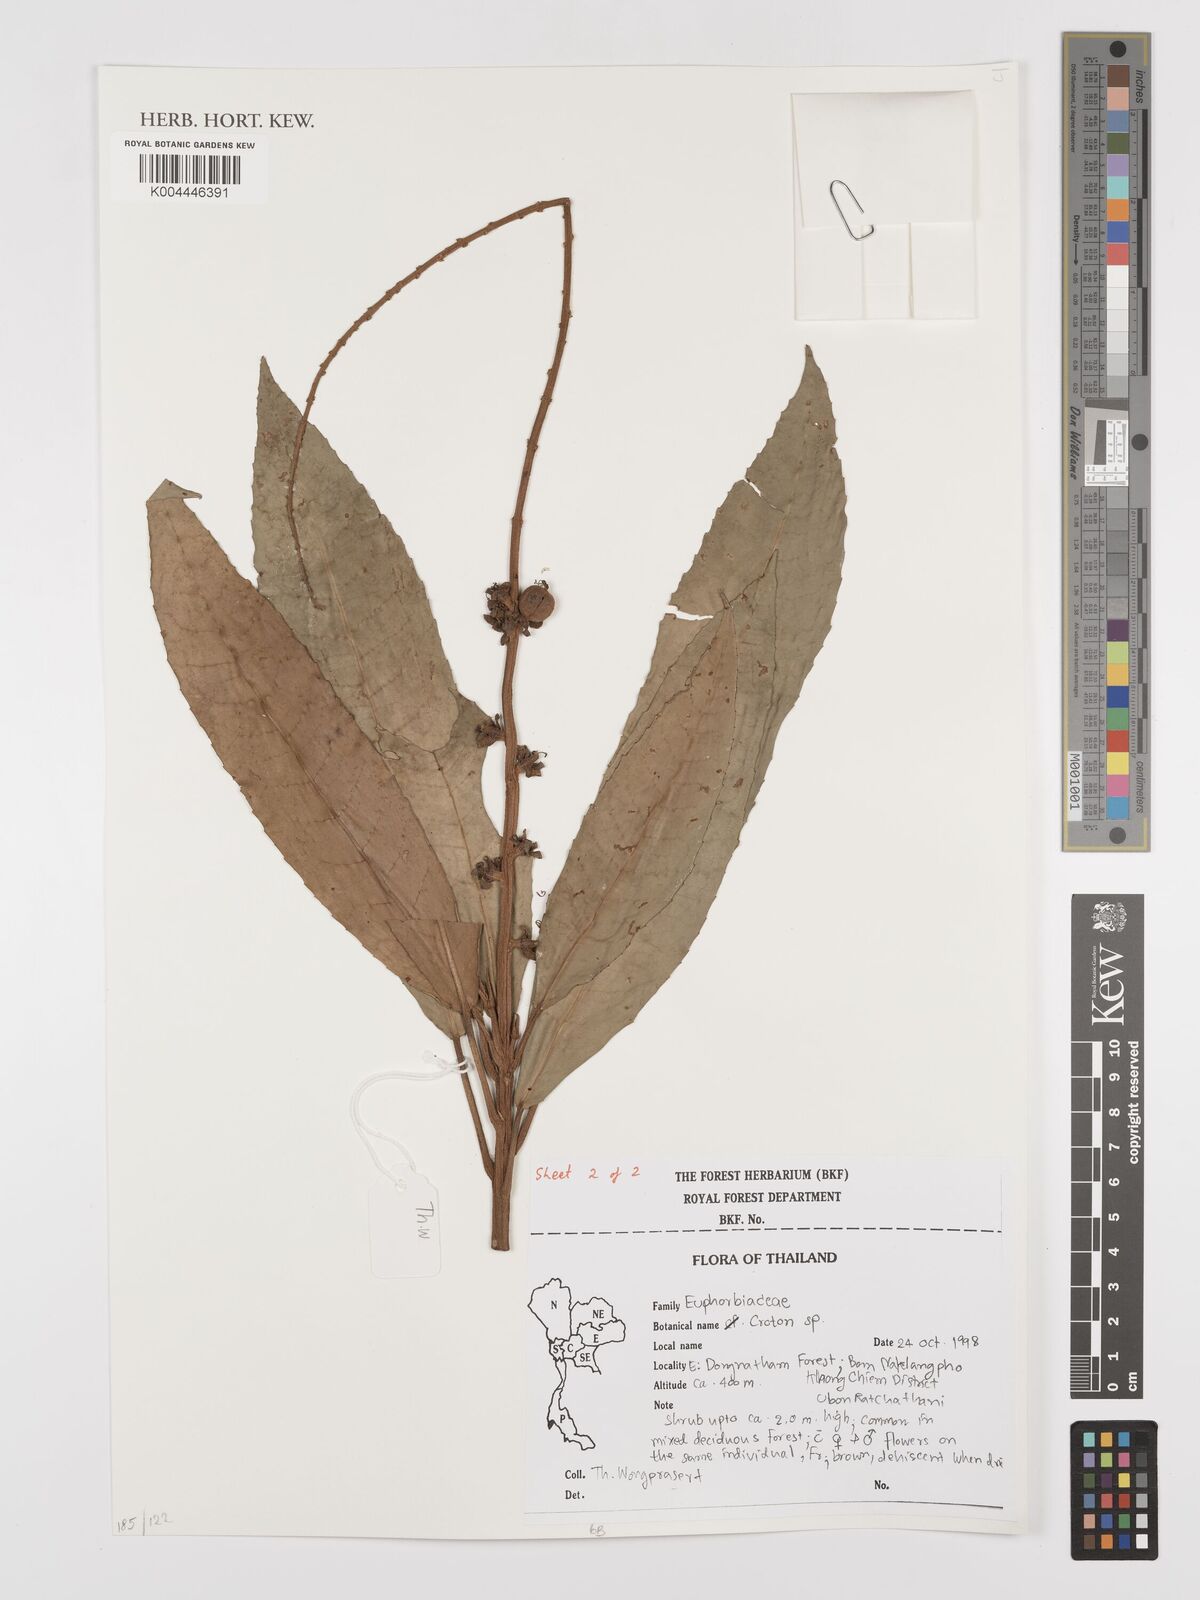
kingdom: Plantae
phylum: Tracheophyta
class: Magnoliopsida
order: Malpighiales
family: Euphorbiaceae
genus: Croton
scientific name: Croton
